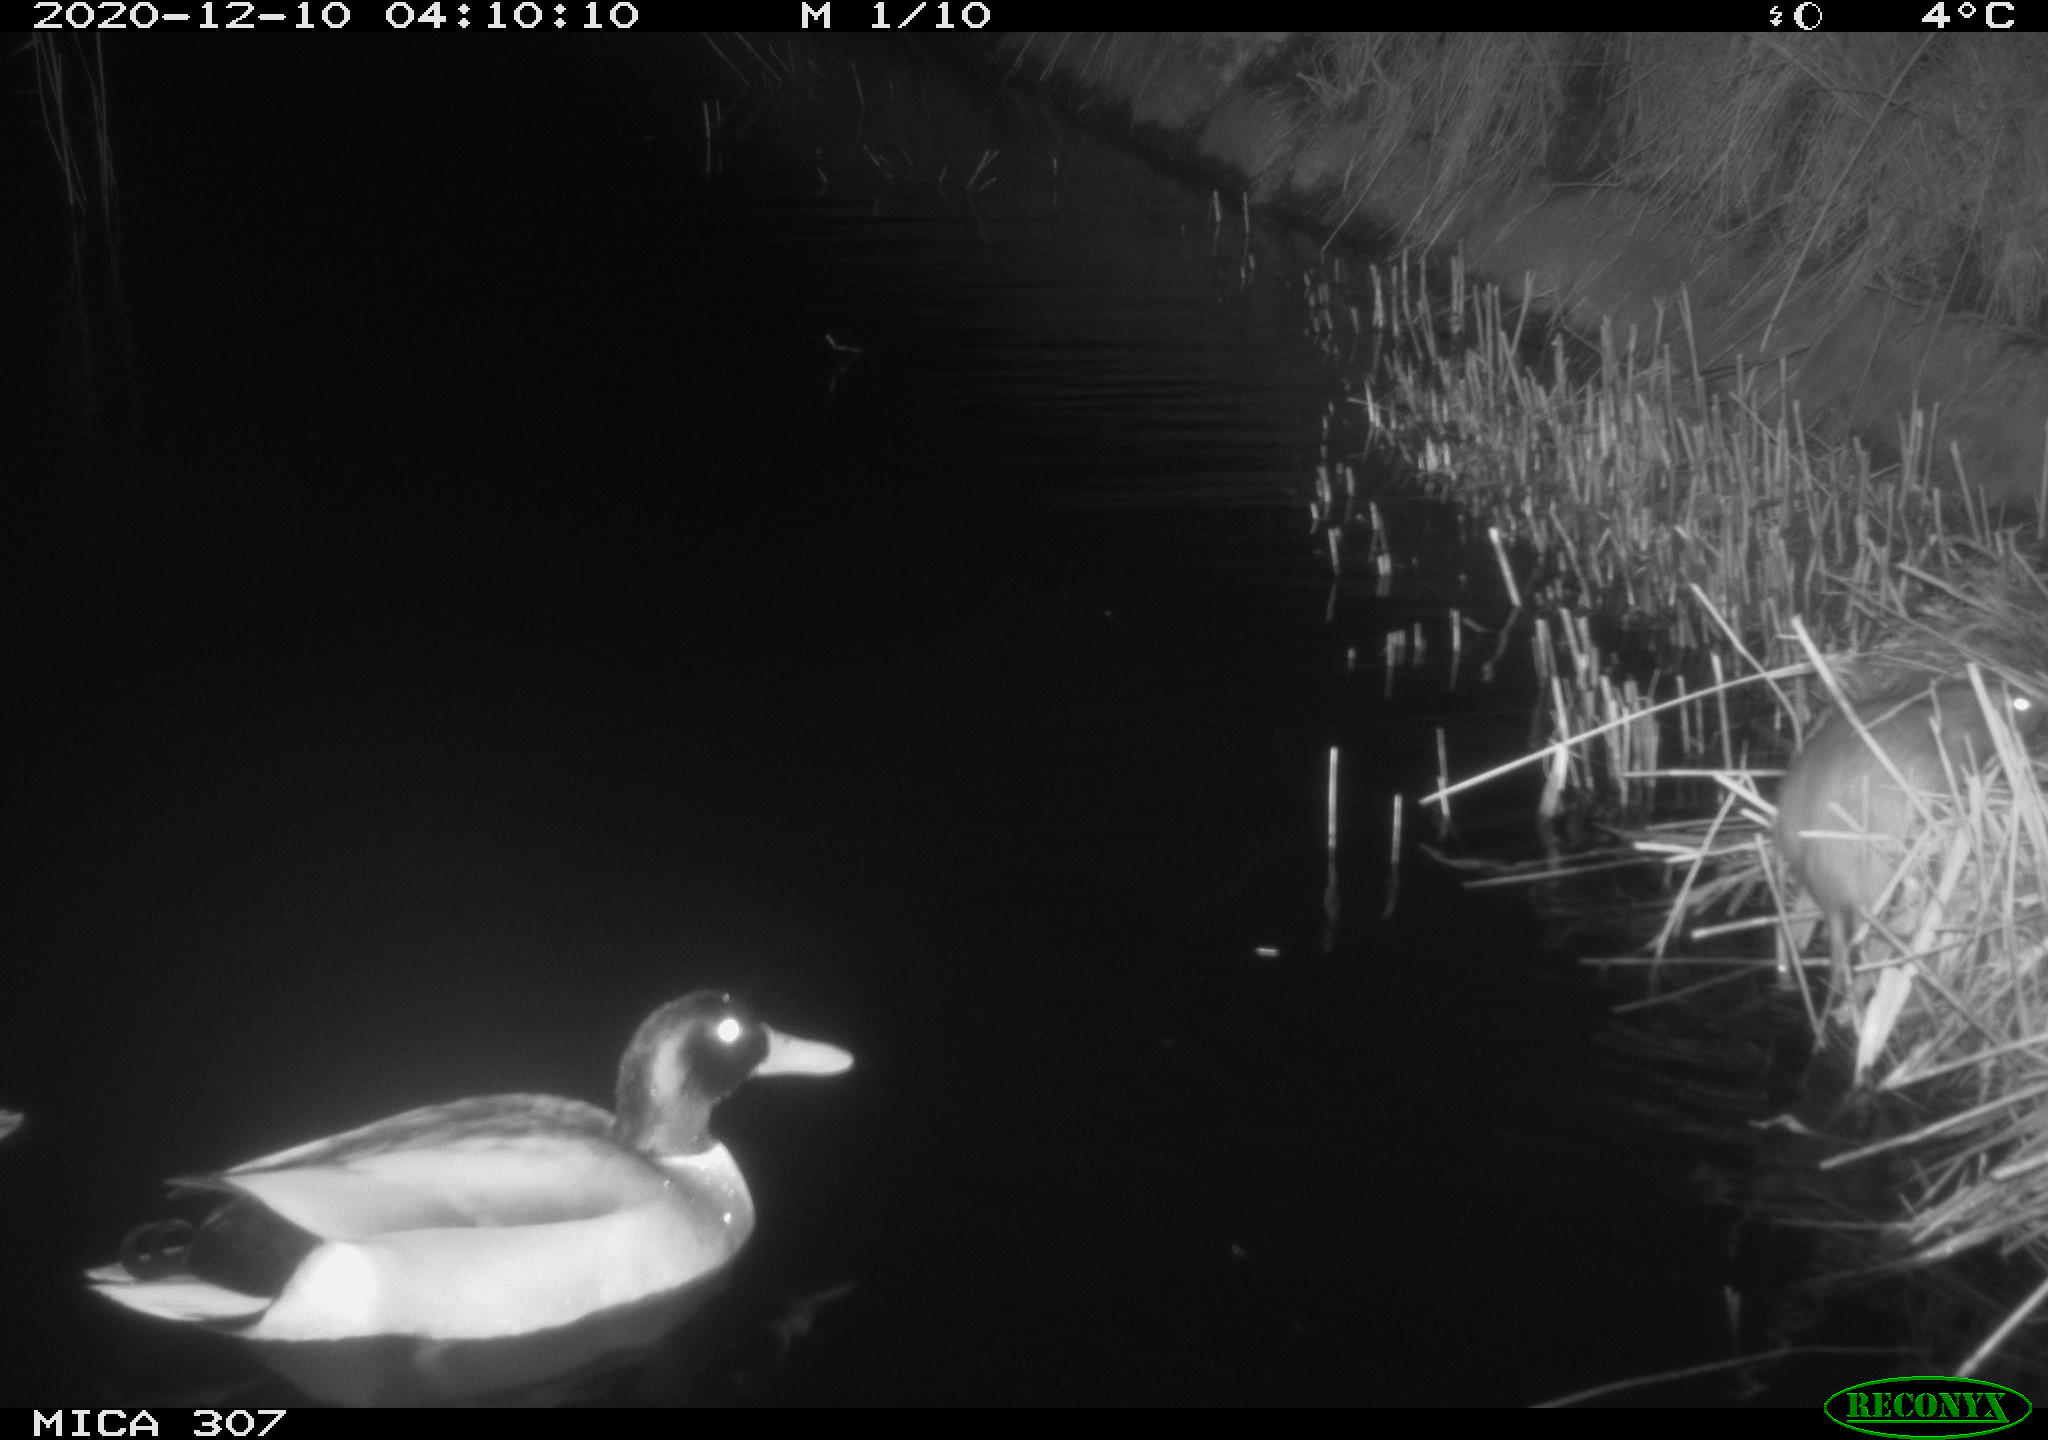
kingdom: Animalia
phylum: Chordata
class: Aves
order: Anseriformes
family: Anatidae
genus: Anas
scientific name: Anas platyrhynchos
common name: Mallard
